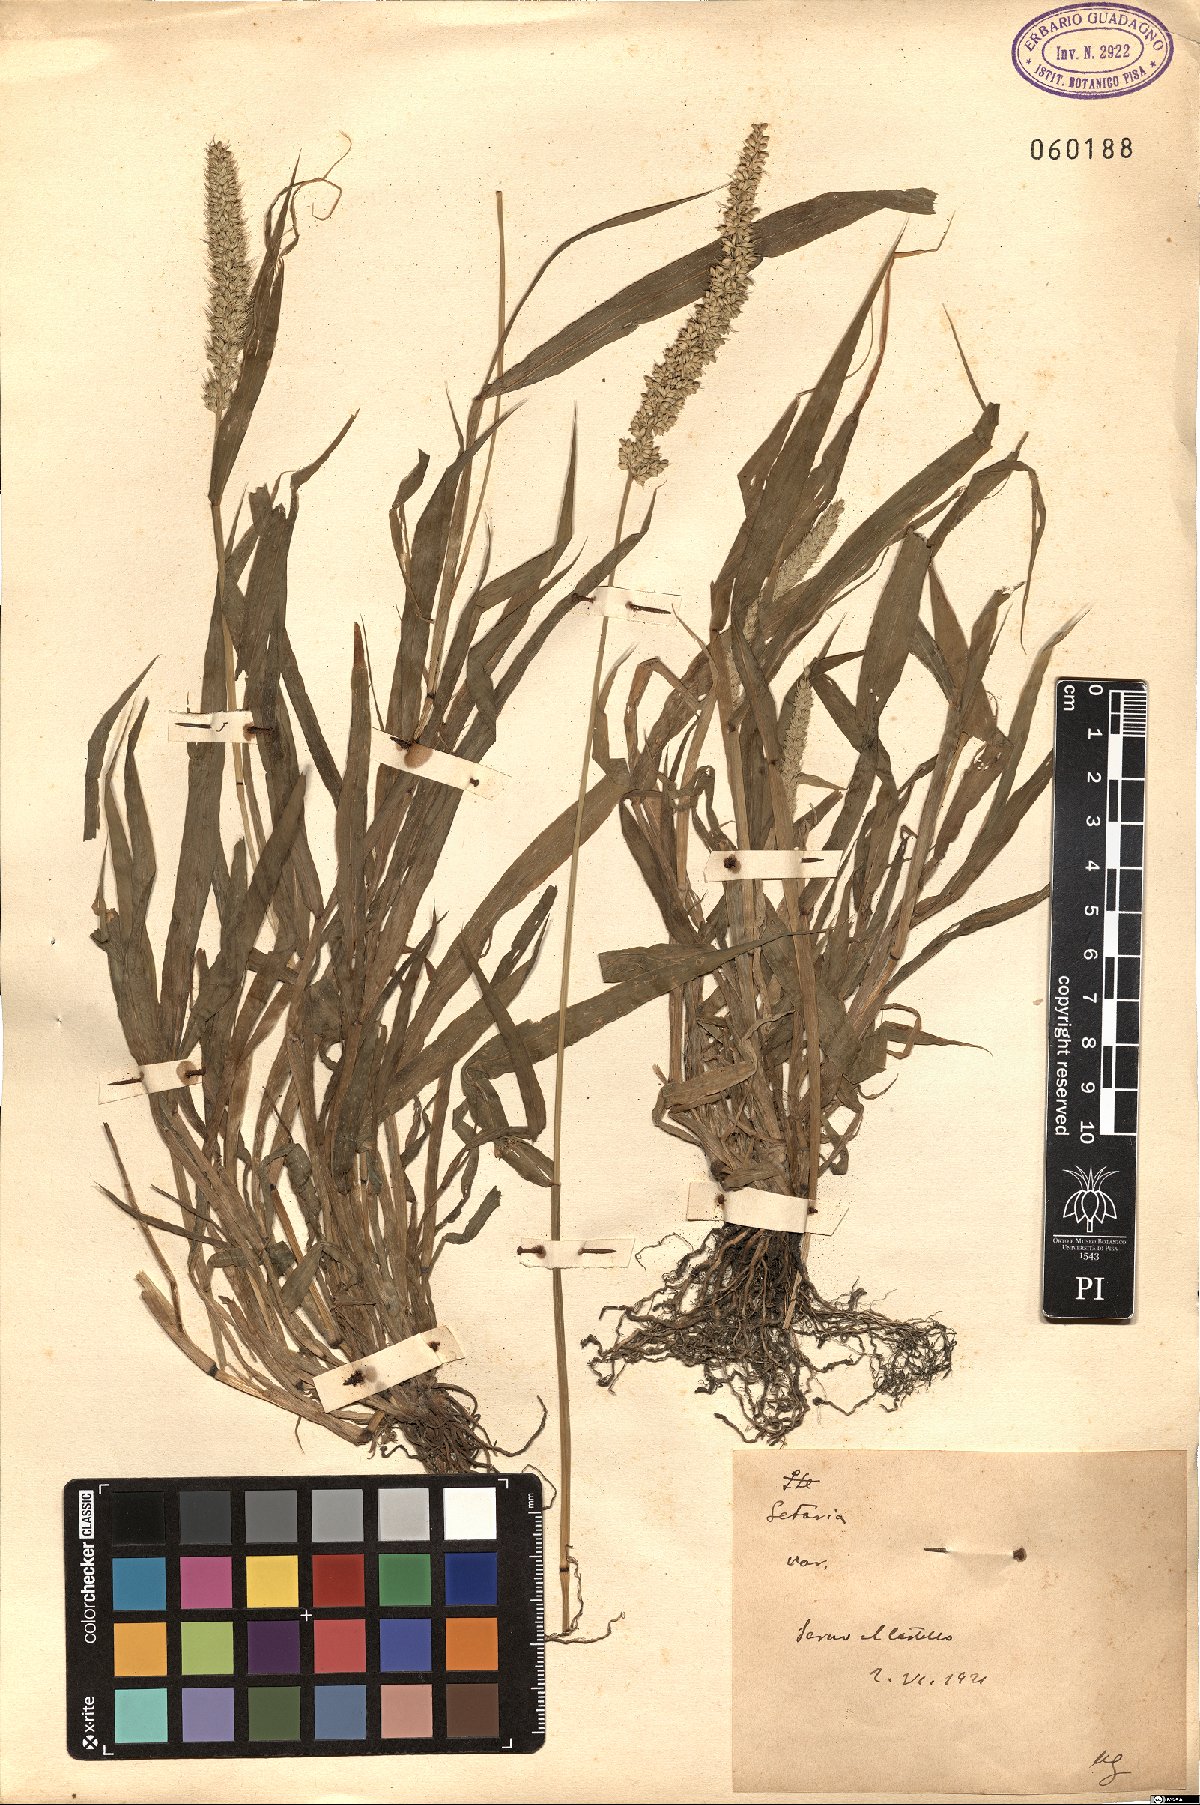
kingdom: Plantae
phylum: Tracheophyta
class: Liliopsida
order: Poales
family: Poaceae
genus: Setaria
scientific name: Setaria
